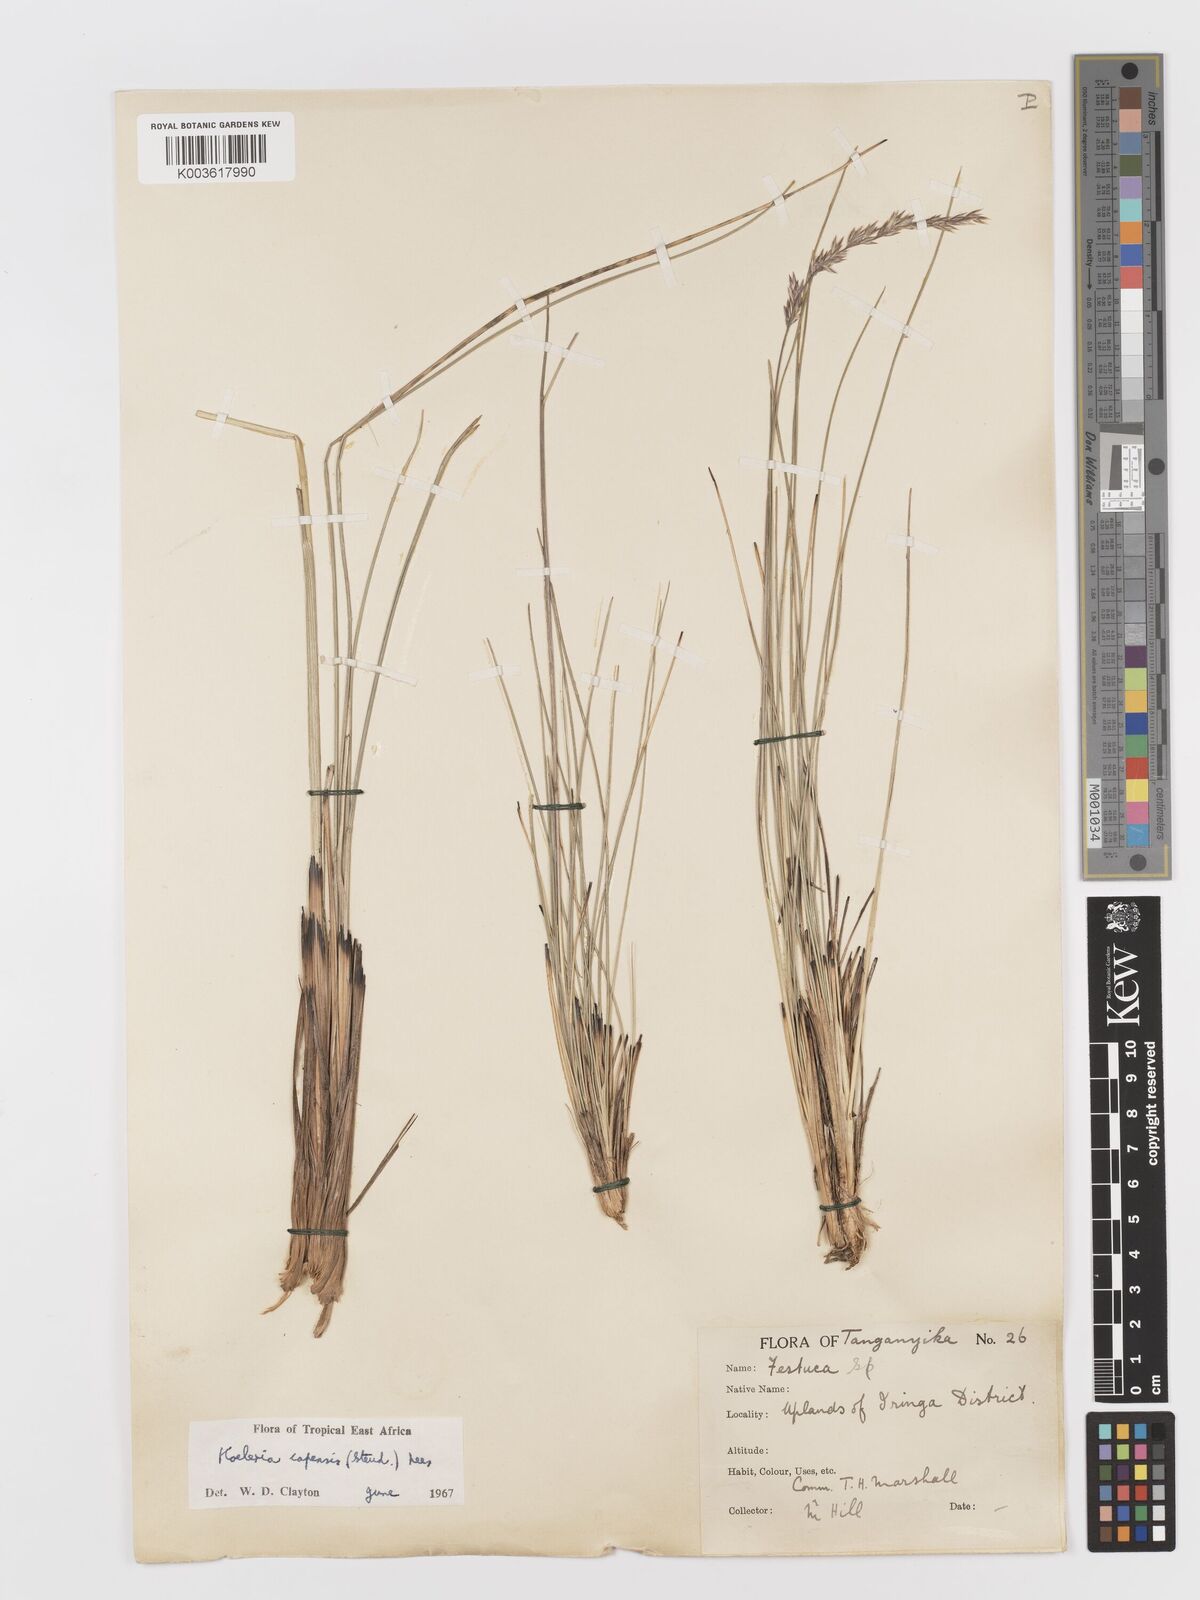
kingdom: Plantae
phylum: Tracheophyta
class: Liliopsida
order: Poales
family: Poaceae
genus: Koeleria
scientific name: Koeleria capensis
